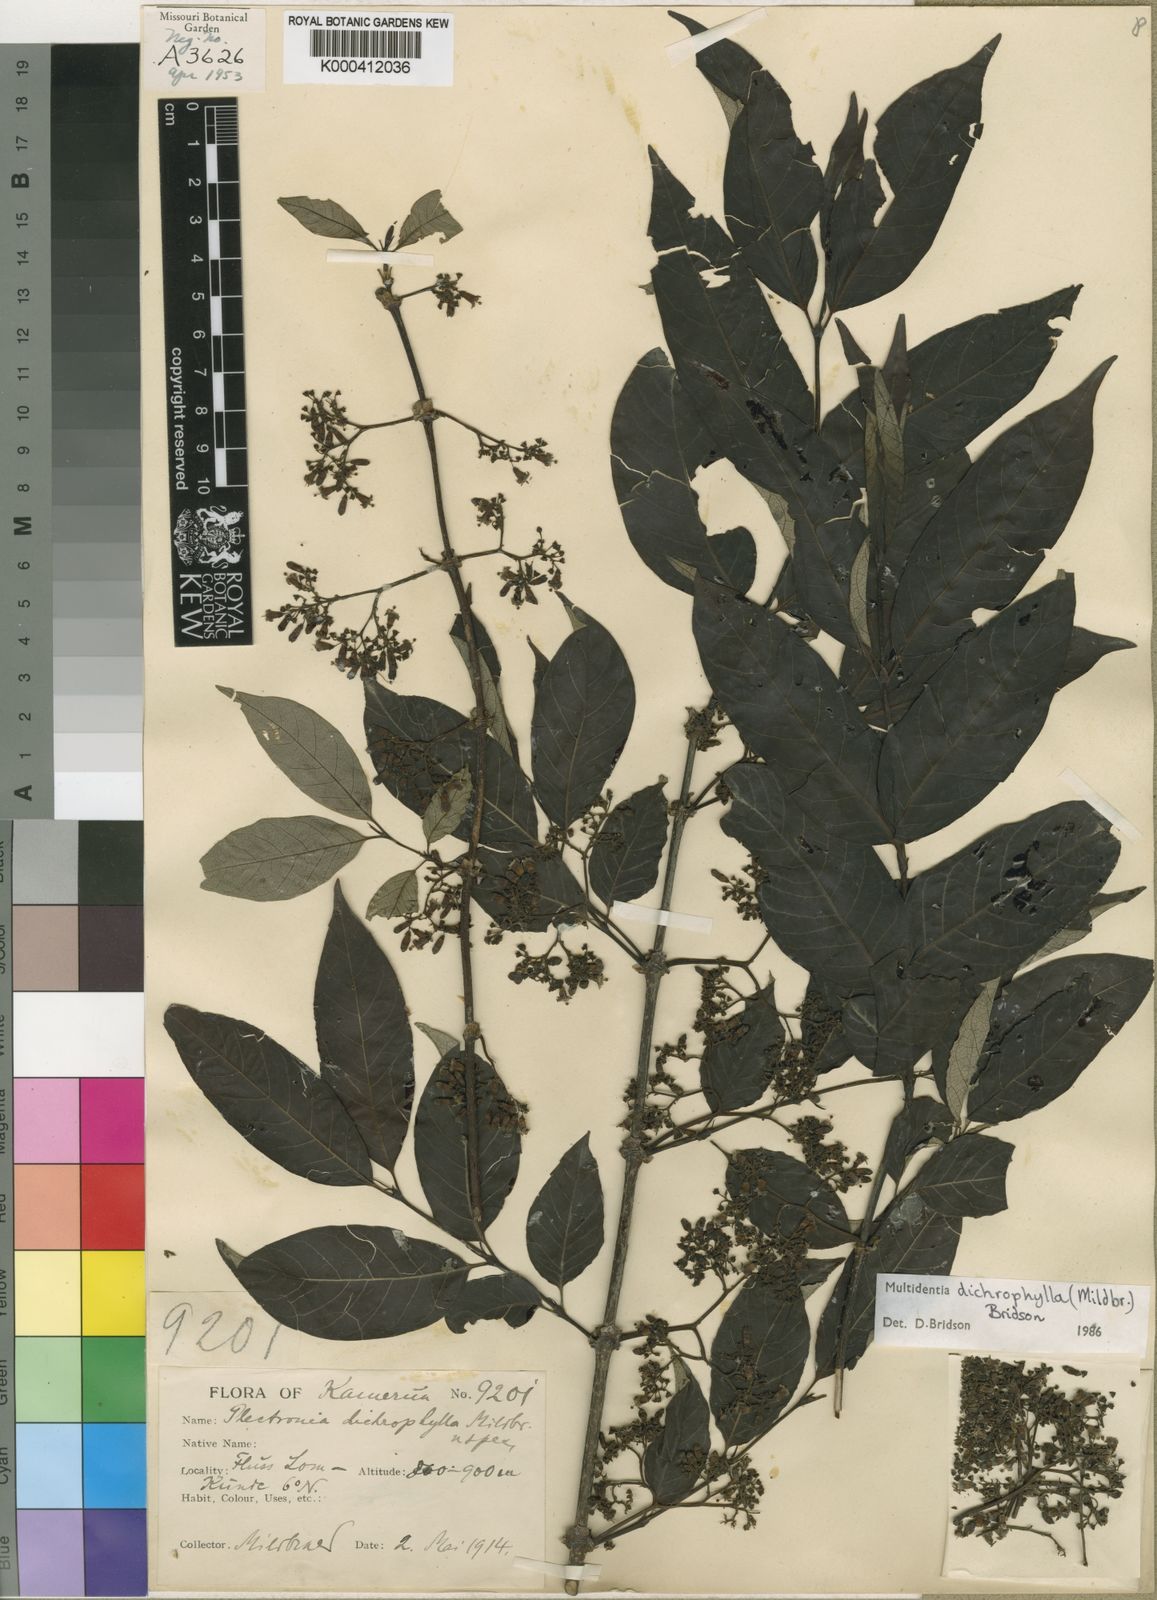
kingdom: Plantae
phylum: Tracheophyta
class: Magnoliopsida
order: Gentianales
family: Rubiaceae
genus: Multidentia
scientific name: Multidentia dichrophylla
